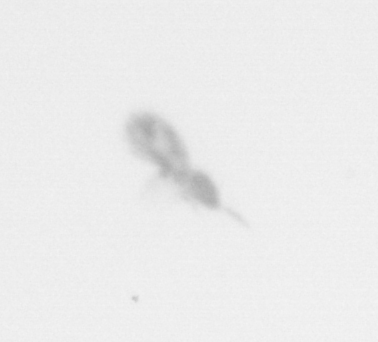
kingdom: Animalia
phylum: Arthropoda
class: Copepoda
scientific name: Copepoda
